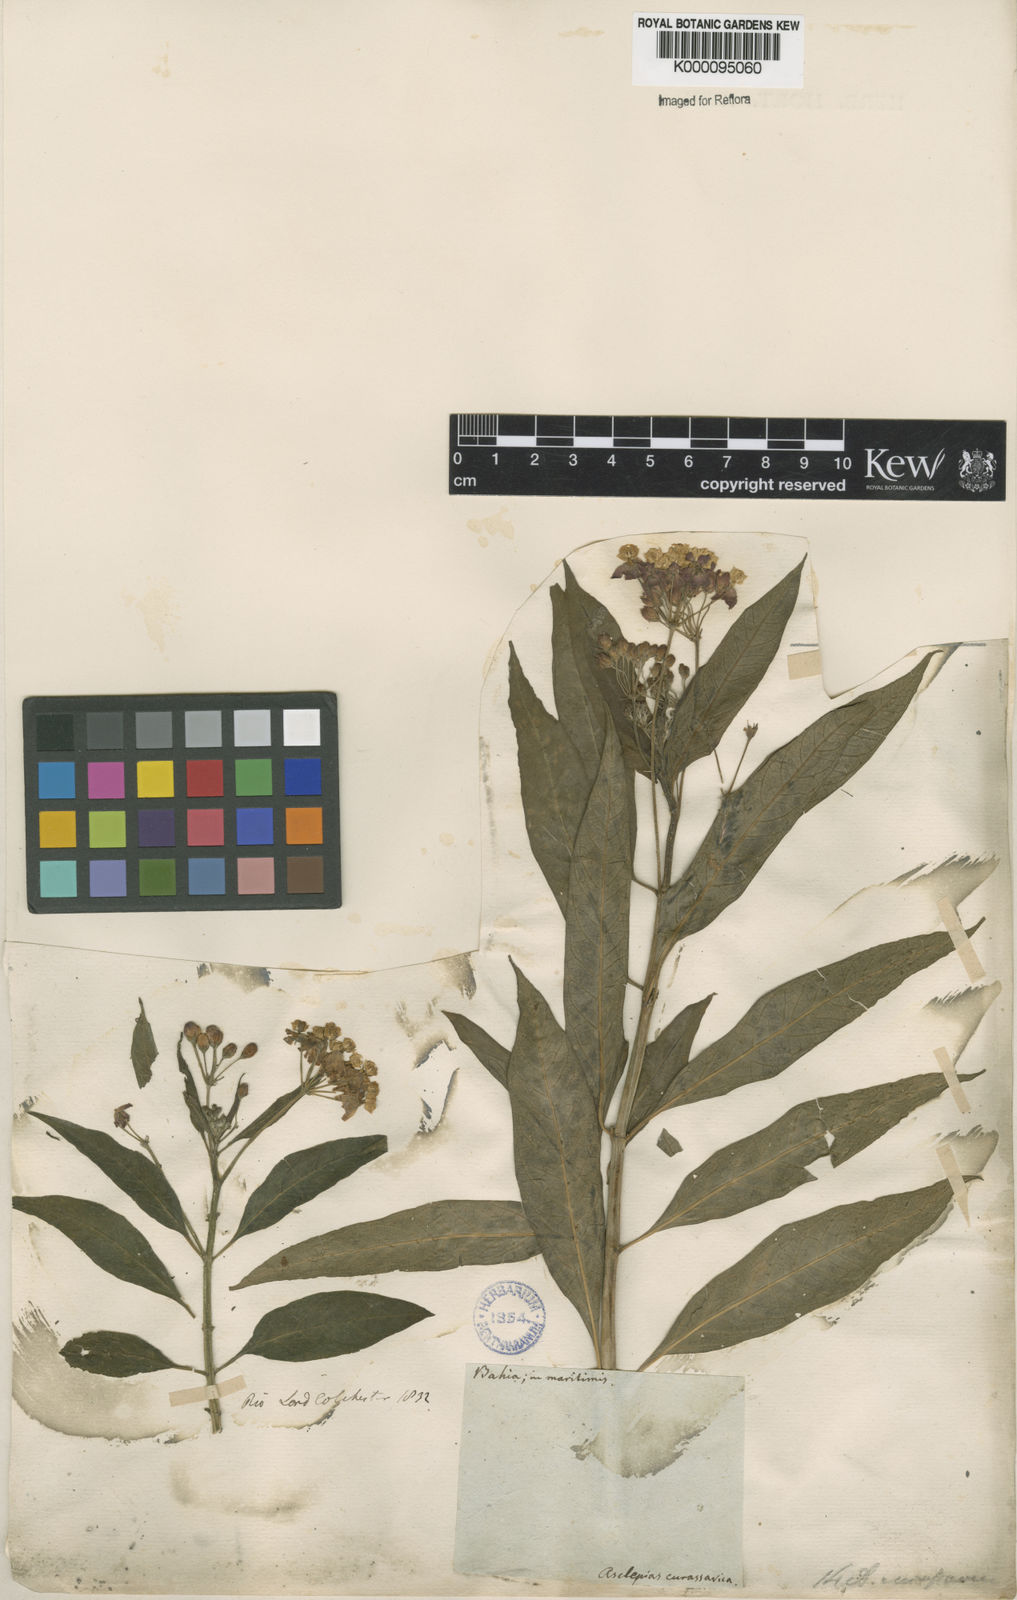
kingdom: Plantae
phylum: Tracheophyta
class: Magnoliopsida
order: Gentianales
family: Apocynaceae
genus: Asclepias
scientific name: Asclepias curassavica
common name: Bloodflower
